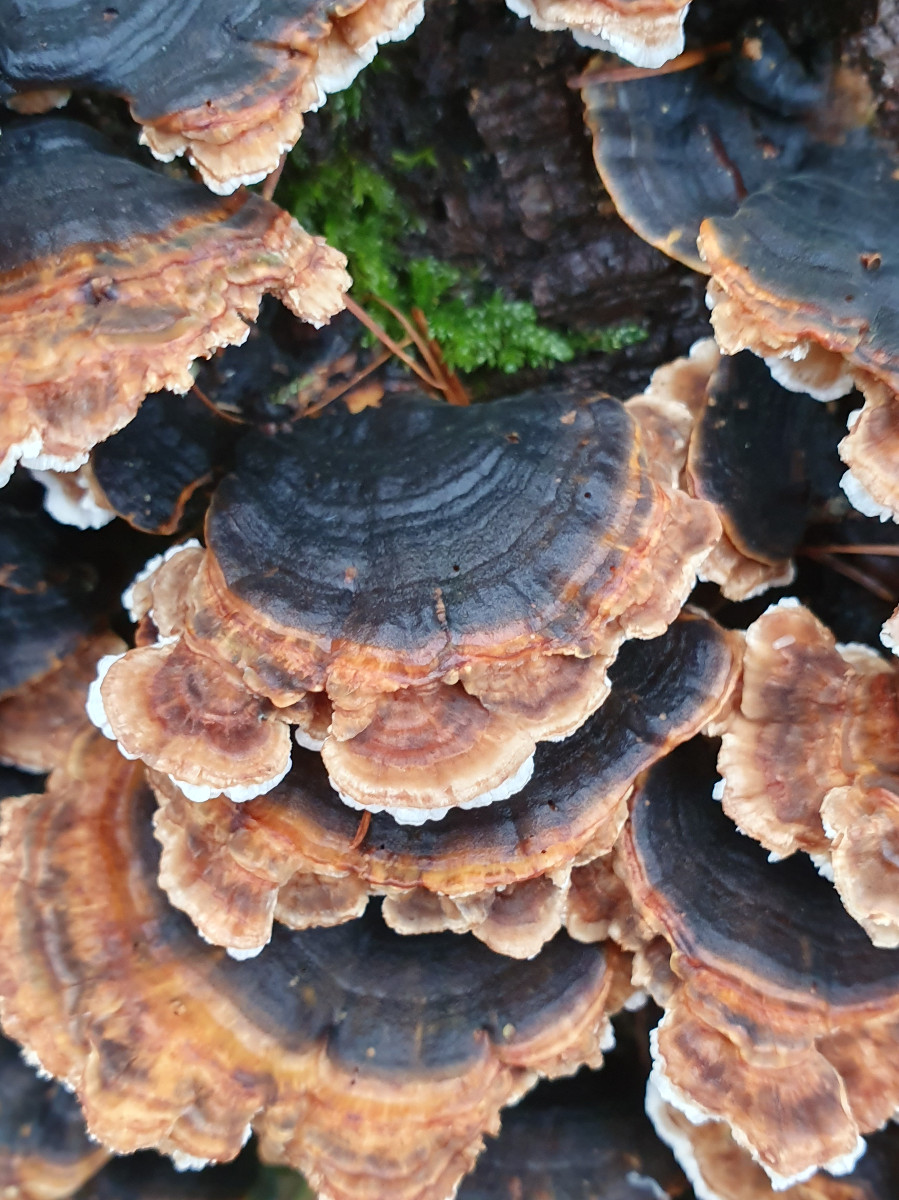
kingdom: Fungi
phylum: Basidiomycota
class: Agaricomycetes
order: Polyporales
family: Polyporaceae
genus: Trametes
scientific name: Trametes versicolor
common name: broget læderporesvamp
